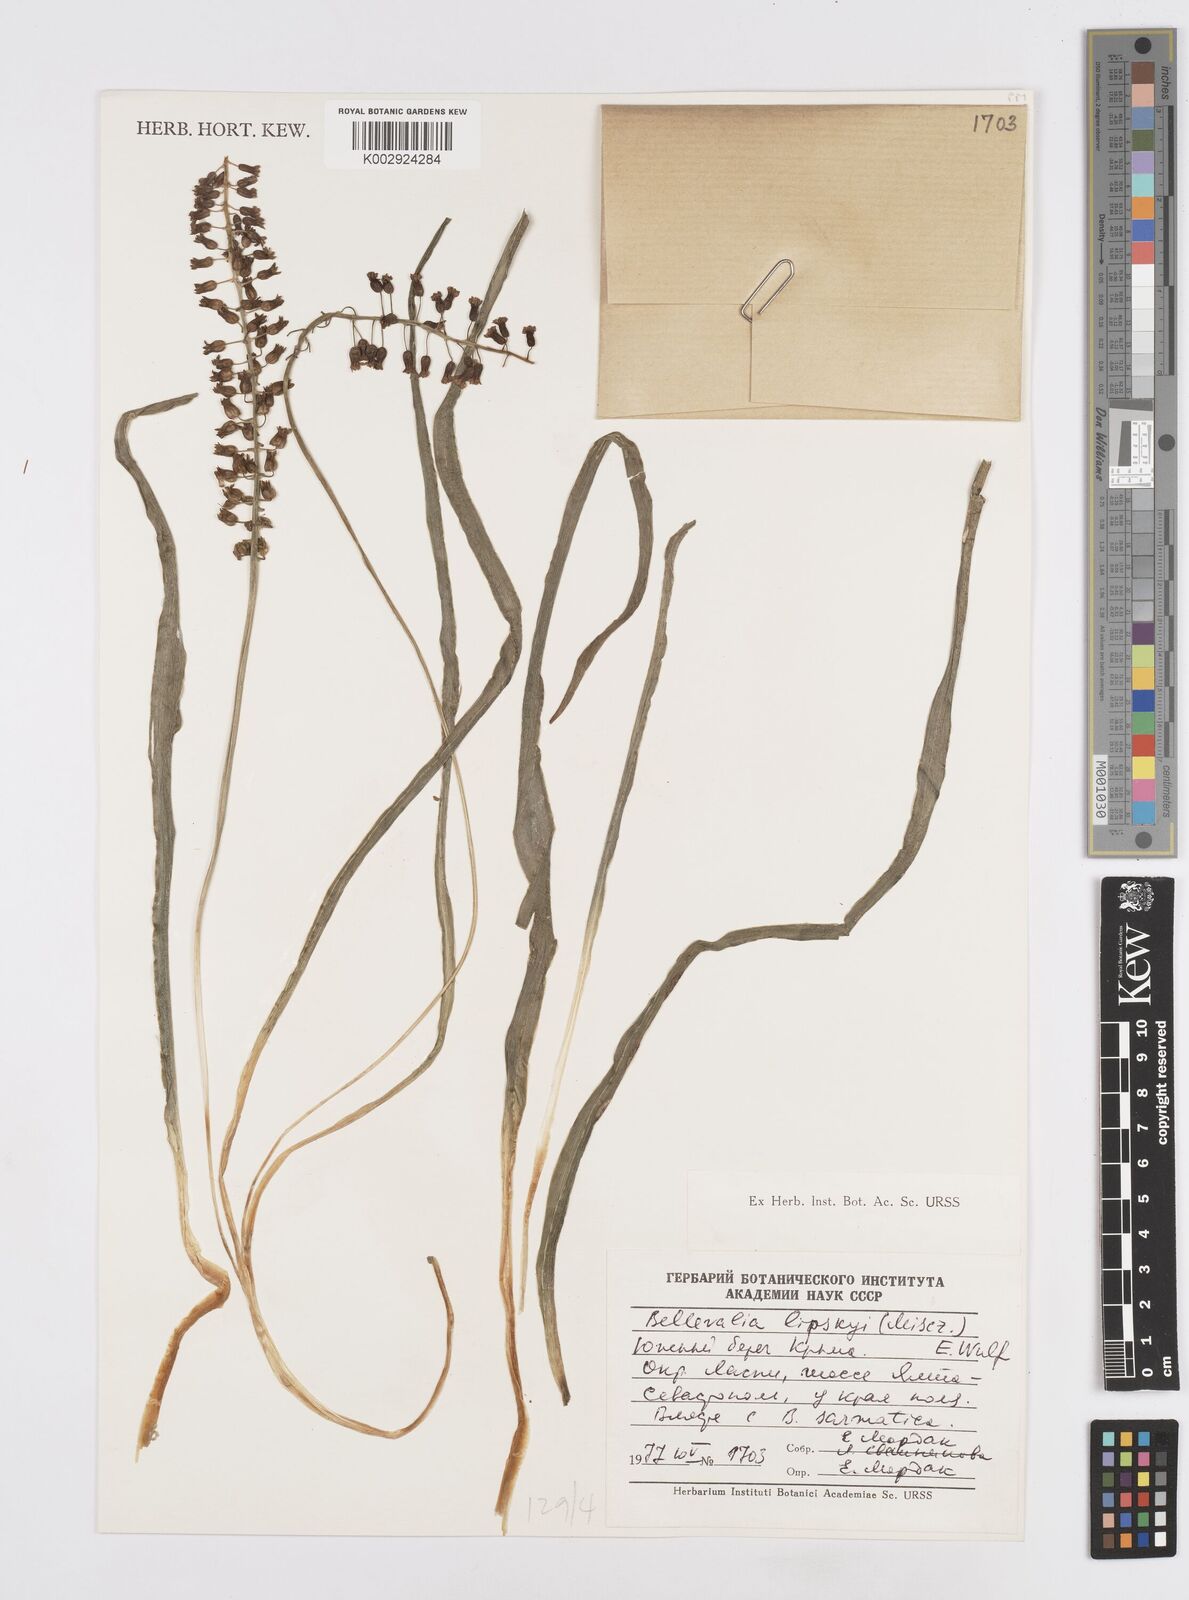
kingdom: Plantae
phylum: Tracheophyta
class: Liliopsida
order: Asparagales
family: Asparagaceae
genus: Bellevalia
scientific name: Bellevalia
